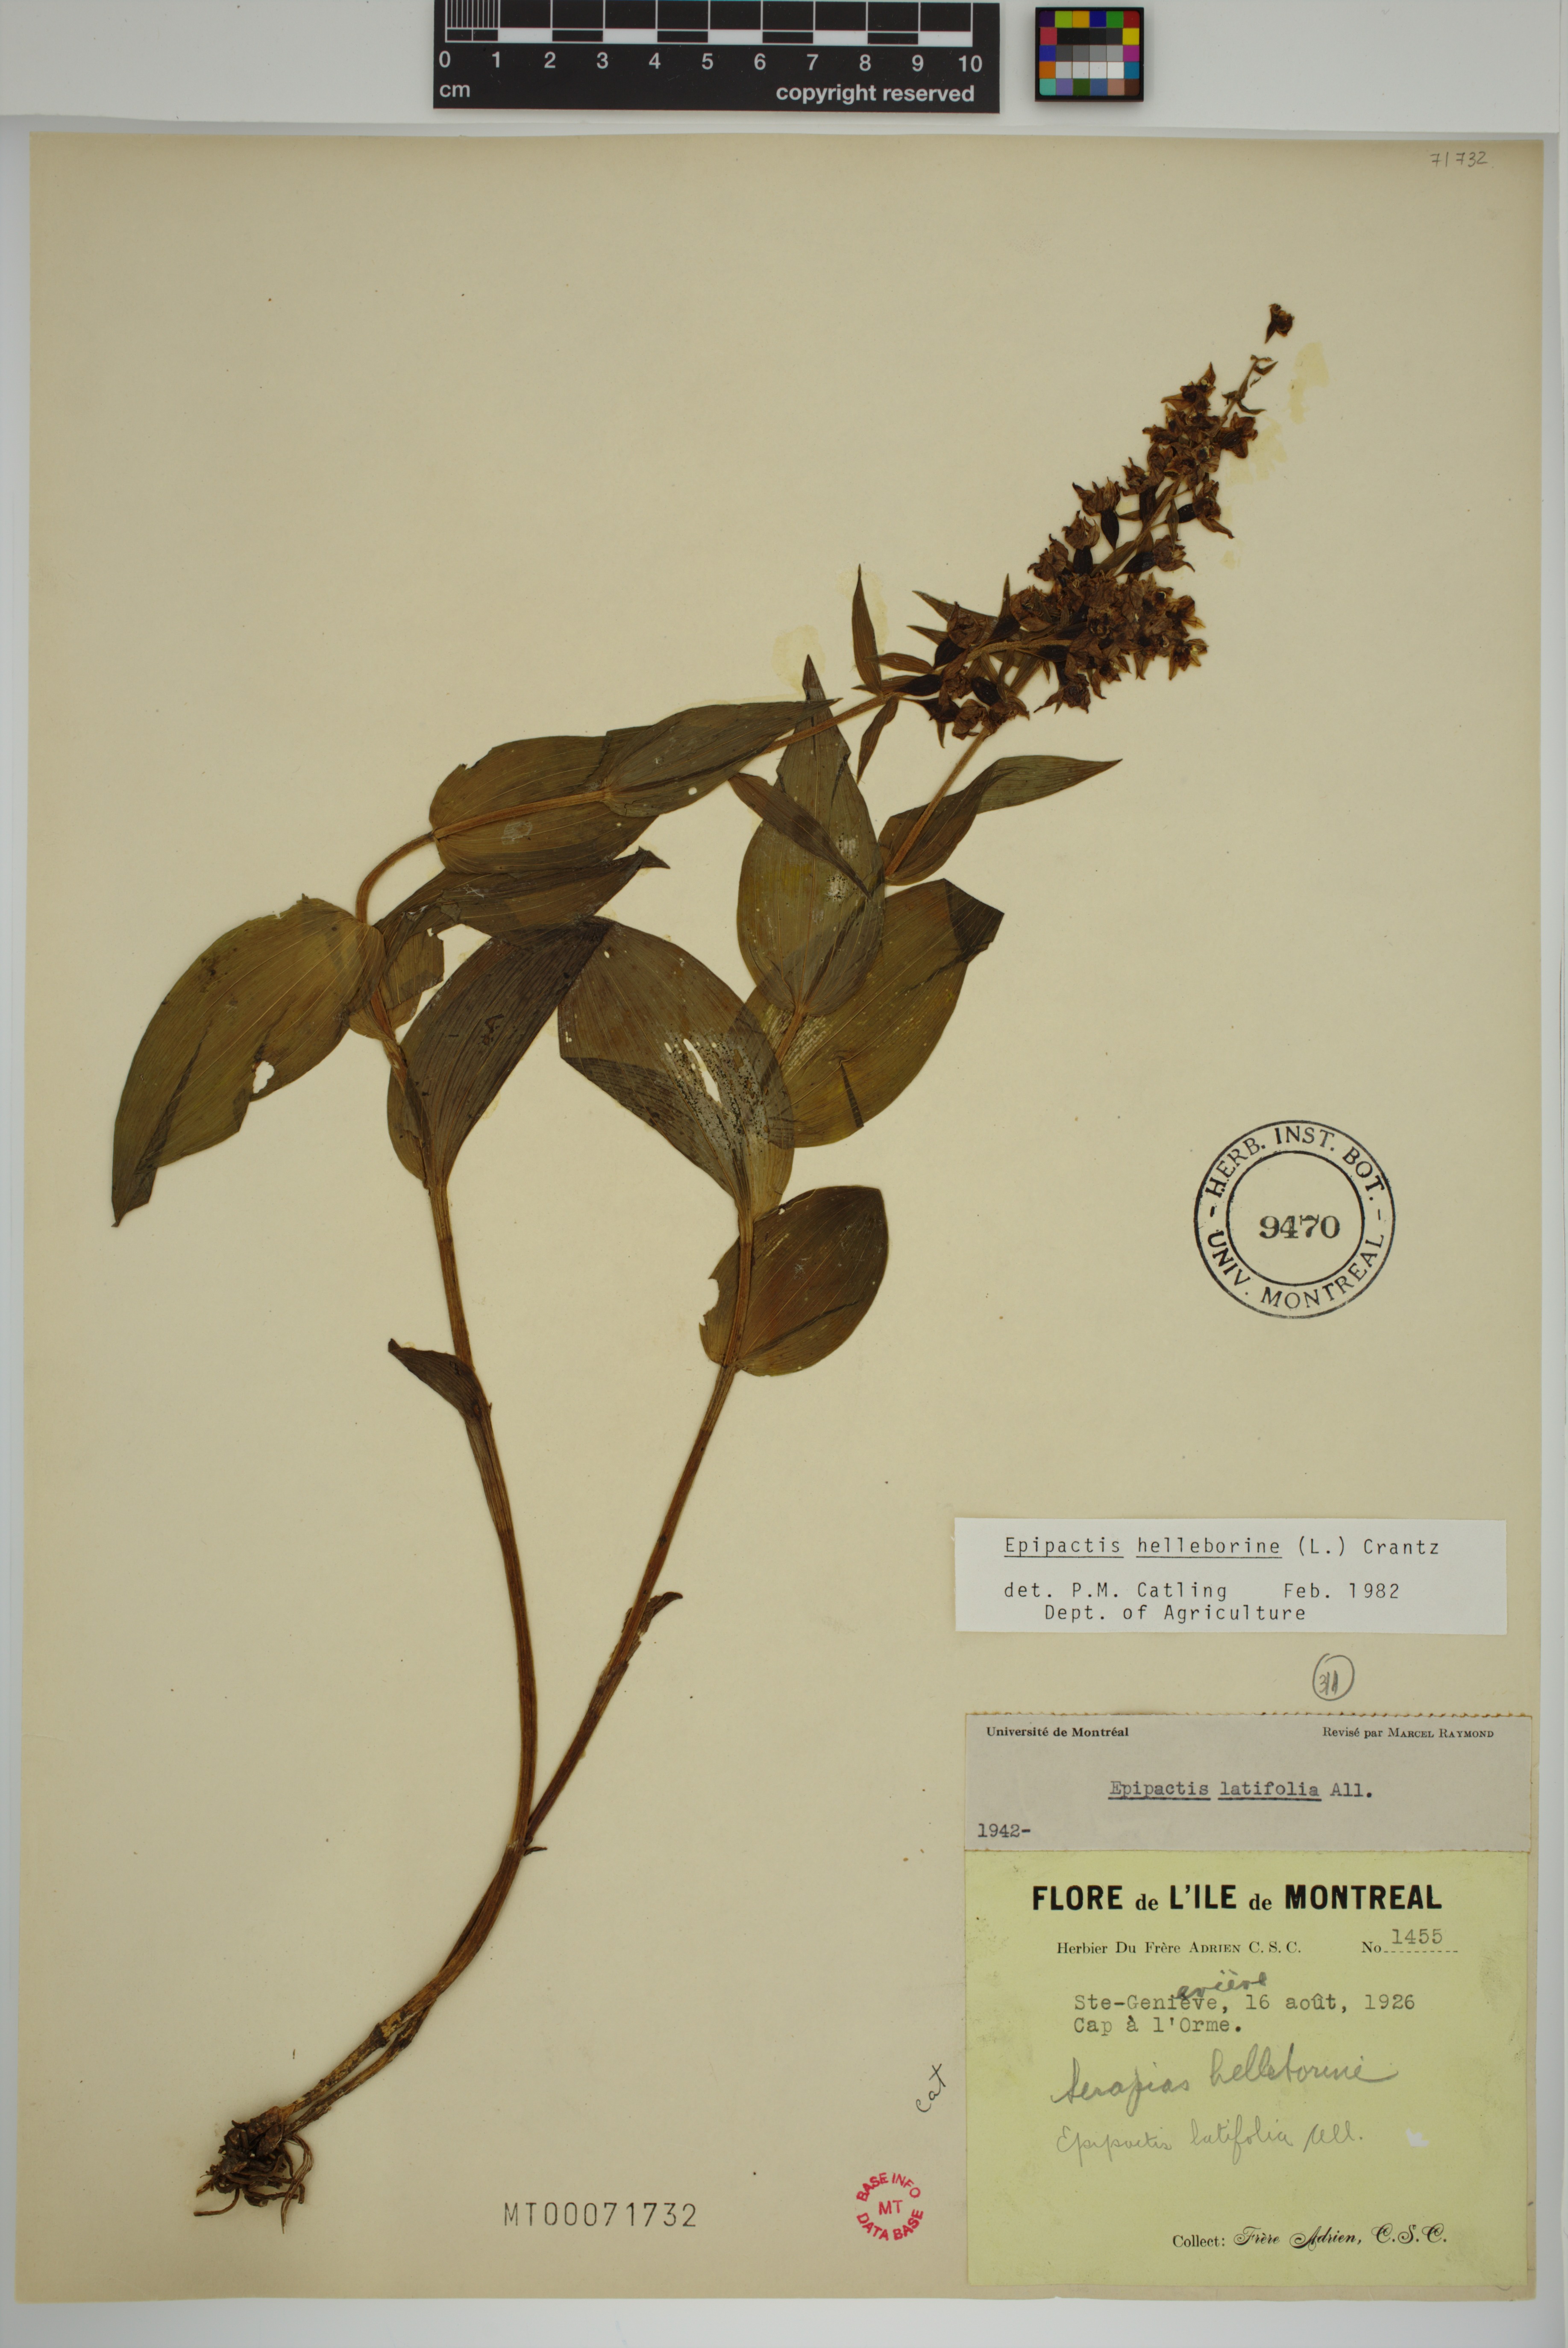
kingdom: Plantae
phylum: Tracheophyta
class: Liliopsida
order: Asparagales
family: Orchidaceae
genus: Epipactis
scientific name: Epipactis helleborine
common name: Broad-leaved helleborine
